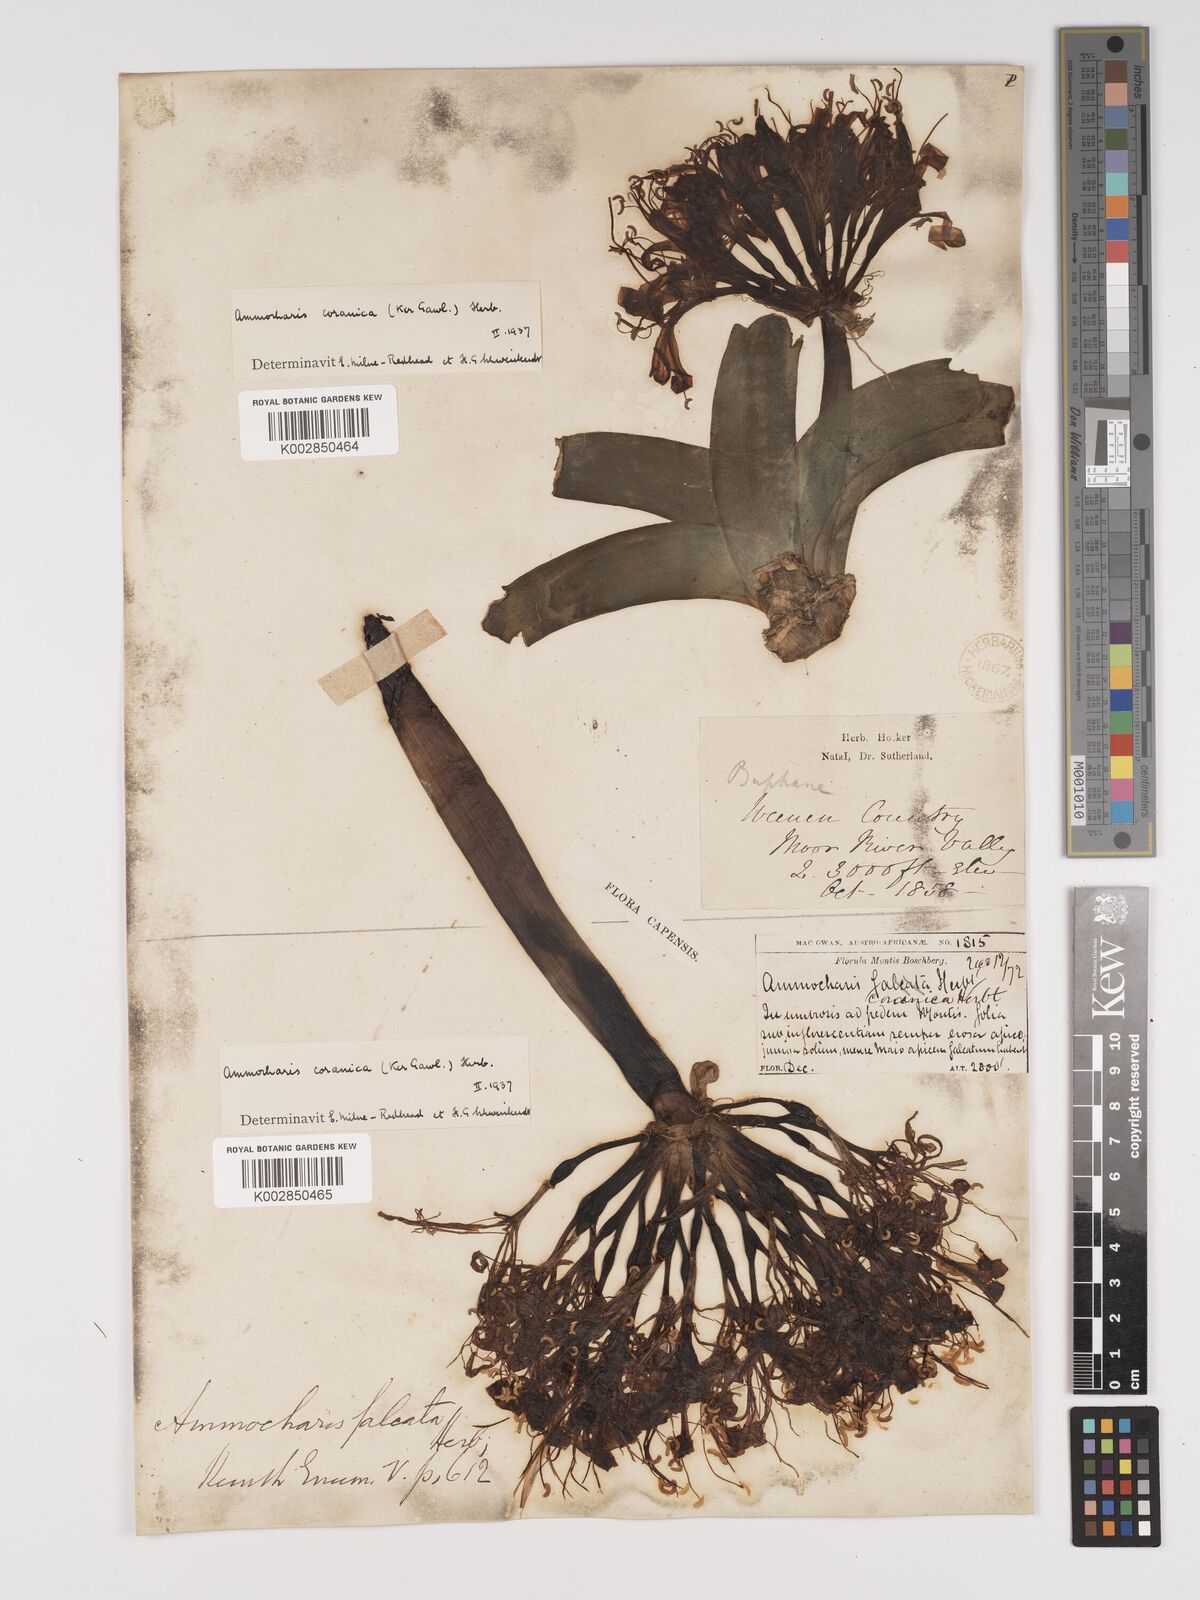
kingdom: Plantae
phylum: Tracheophyta
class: Liliopsida
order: Asparagales
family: Amaryllidaceae
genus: Ammocharis
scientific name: Ammocharis coranica
